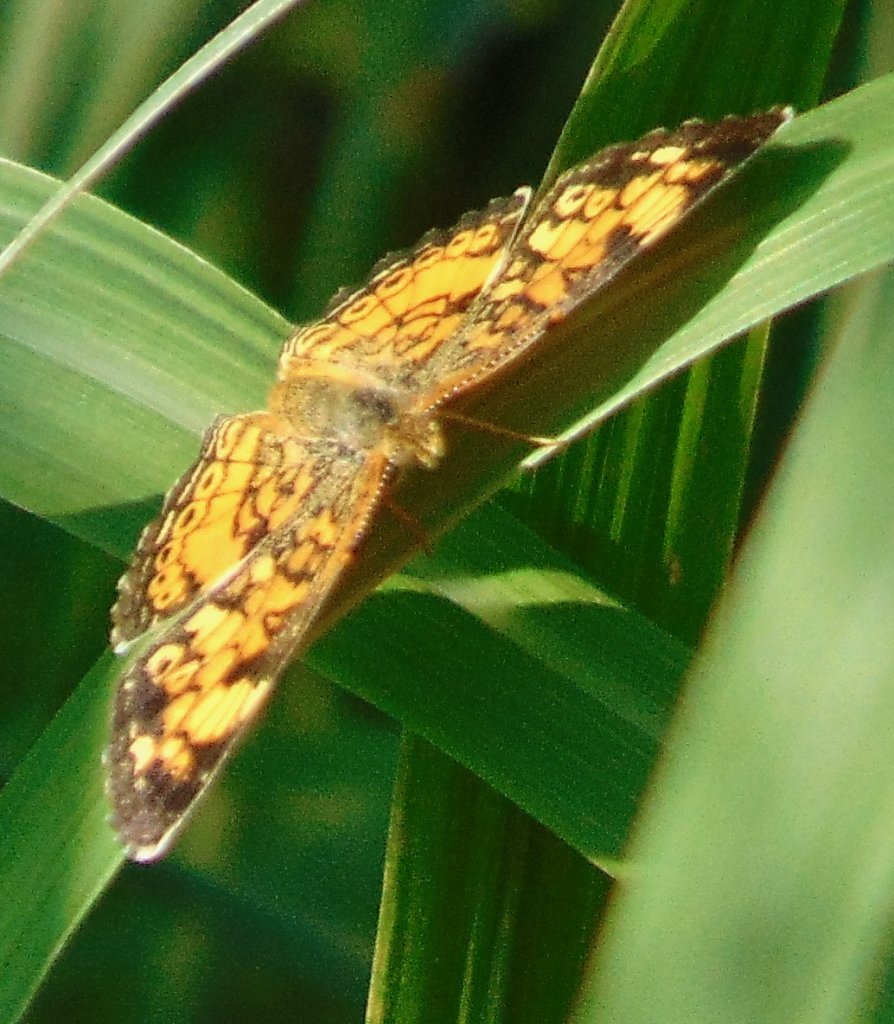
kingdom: Animalia
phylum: Arthropoda
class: Insecta
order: Lepidoptera
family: Nymphalidae
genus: Phyciodes
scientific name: Phyciodes tharos
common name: Pearl Crescent
